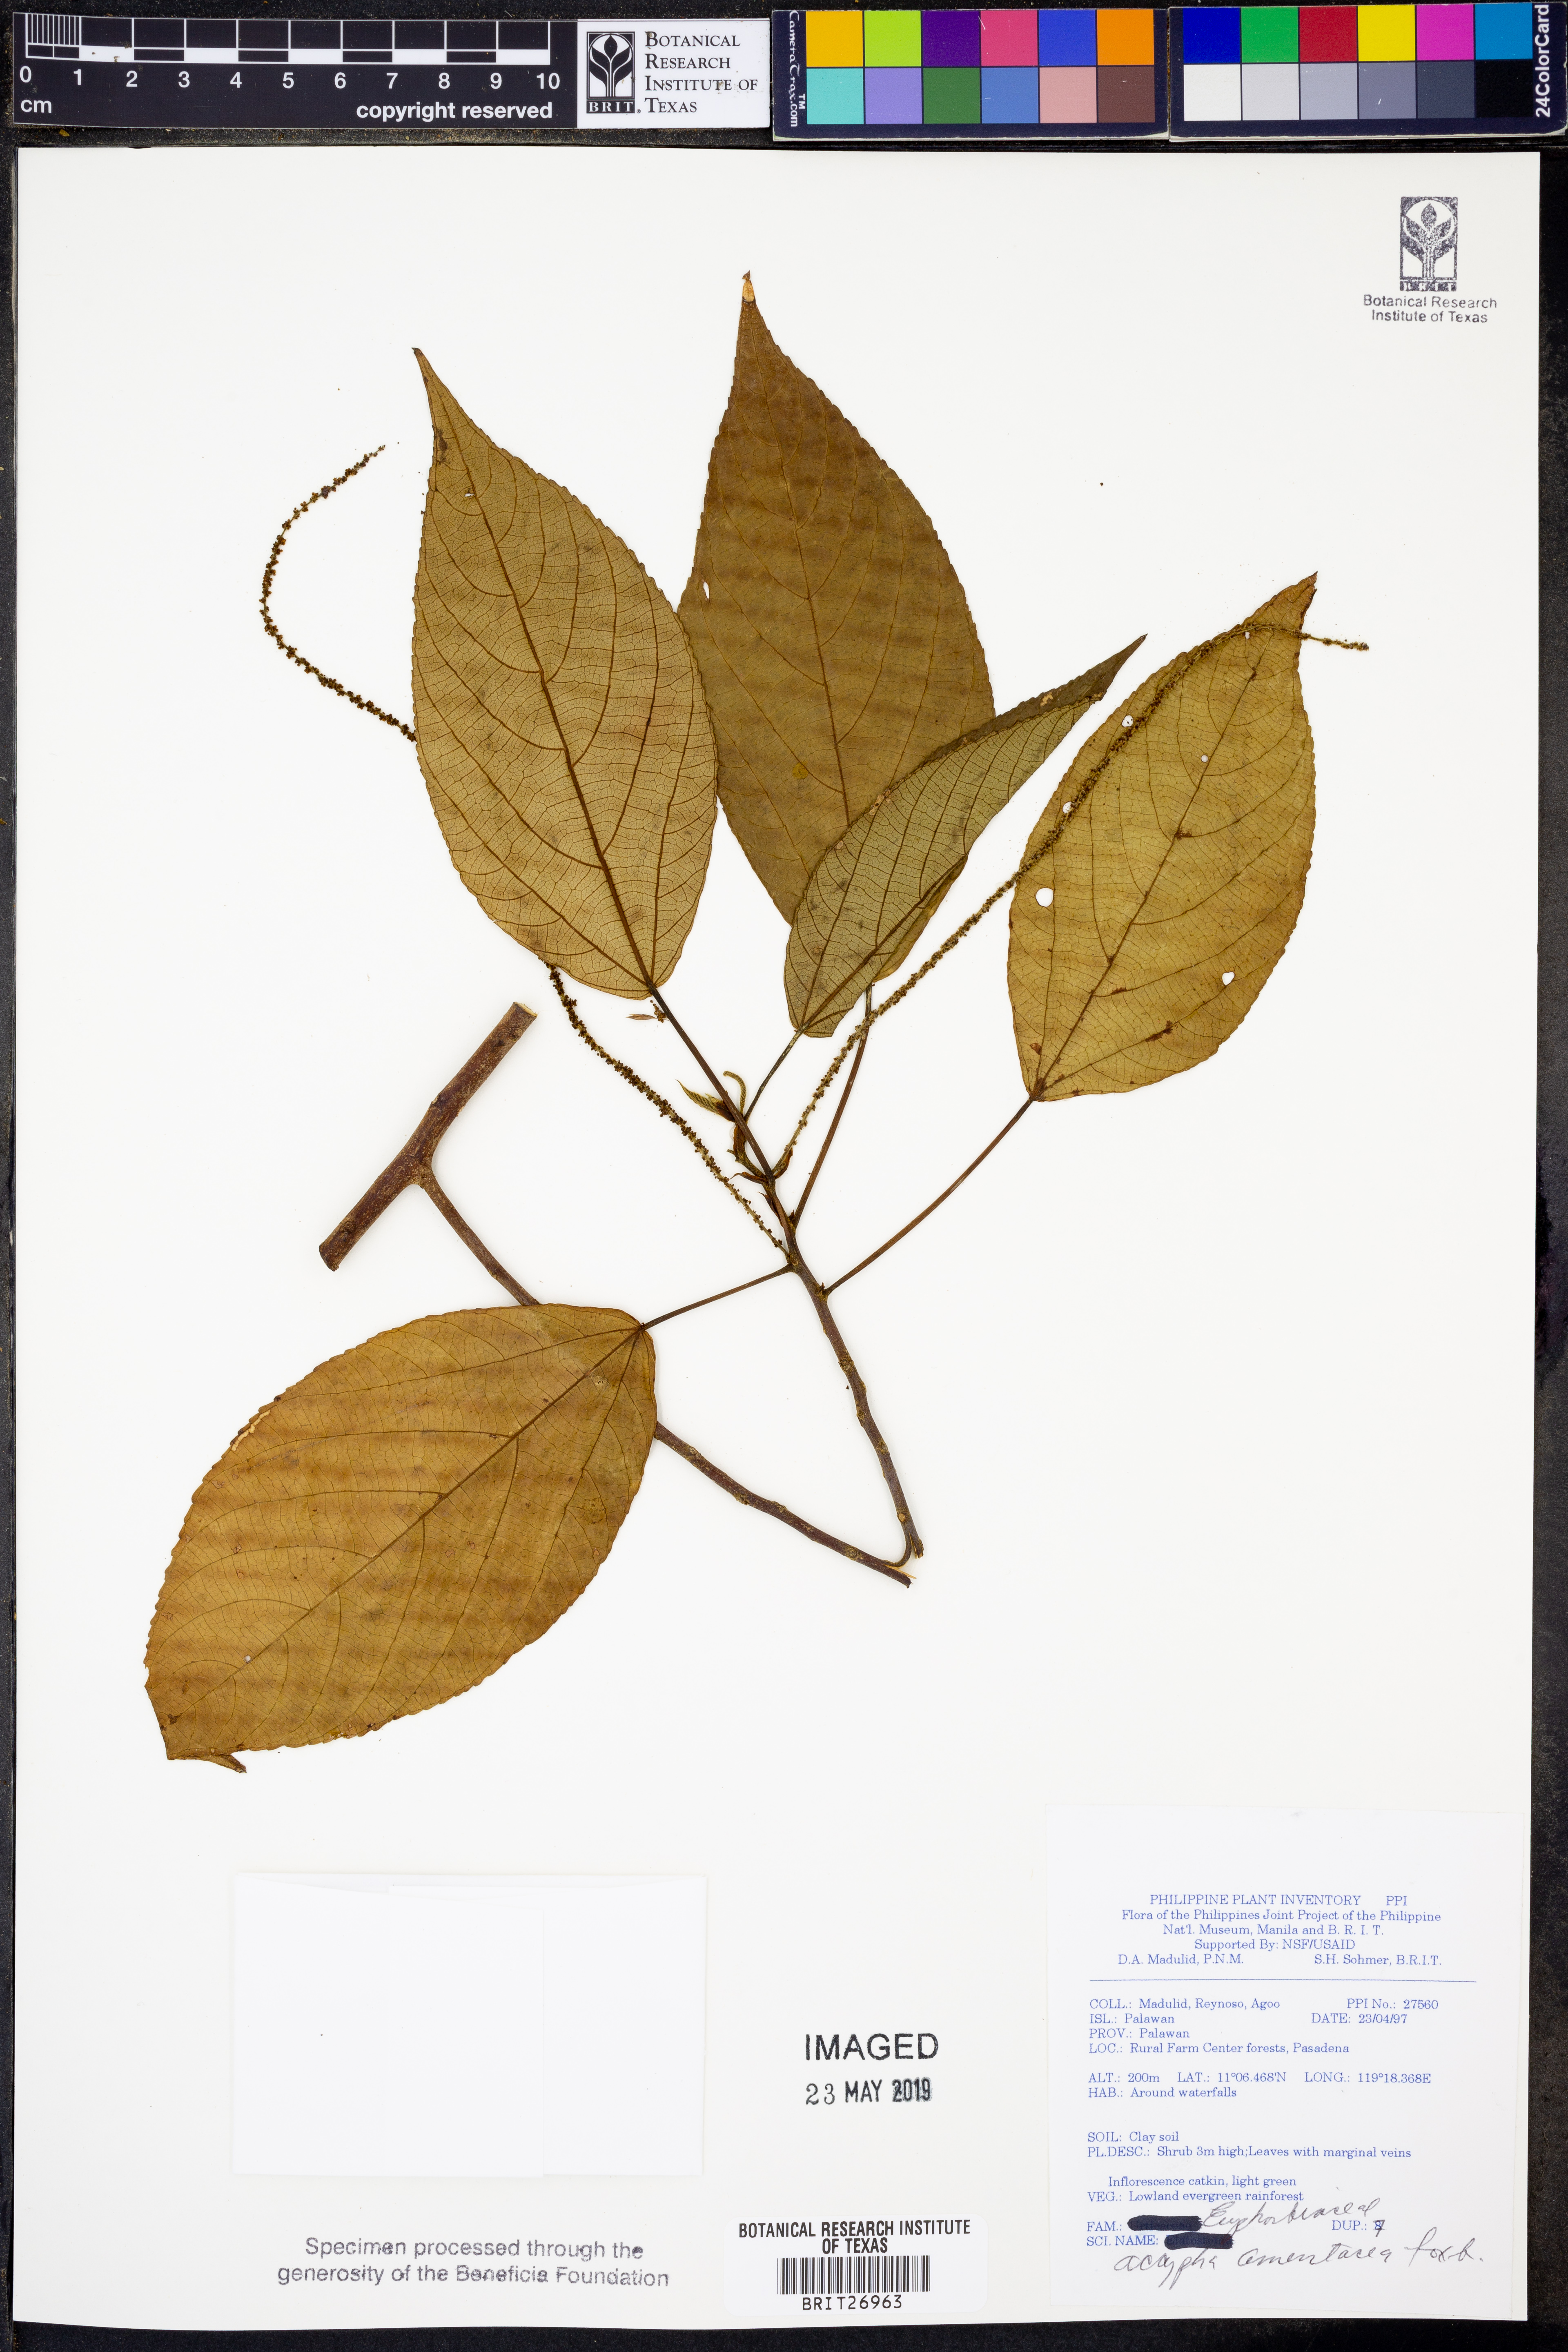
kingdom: Plantae
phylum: Tracheophyta
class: Magnoliopsida
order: Malpighiales
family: Euphorbiaceae
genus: Acalypha
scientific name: Acalypha amentacea
